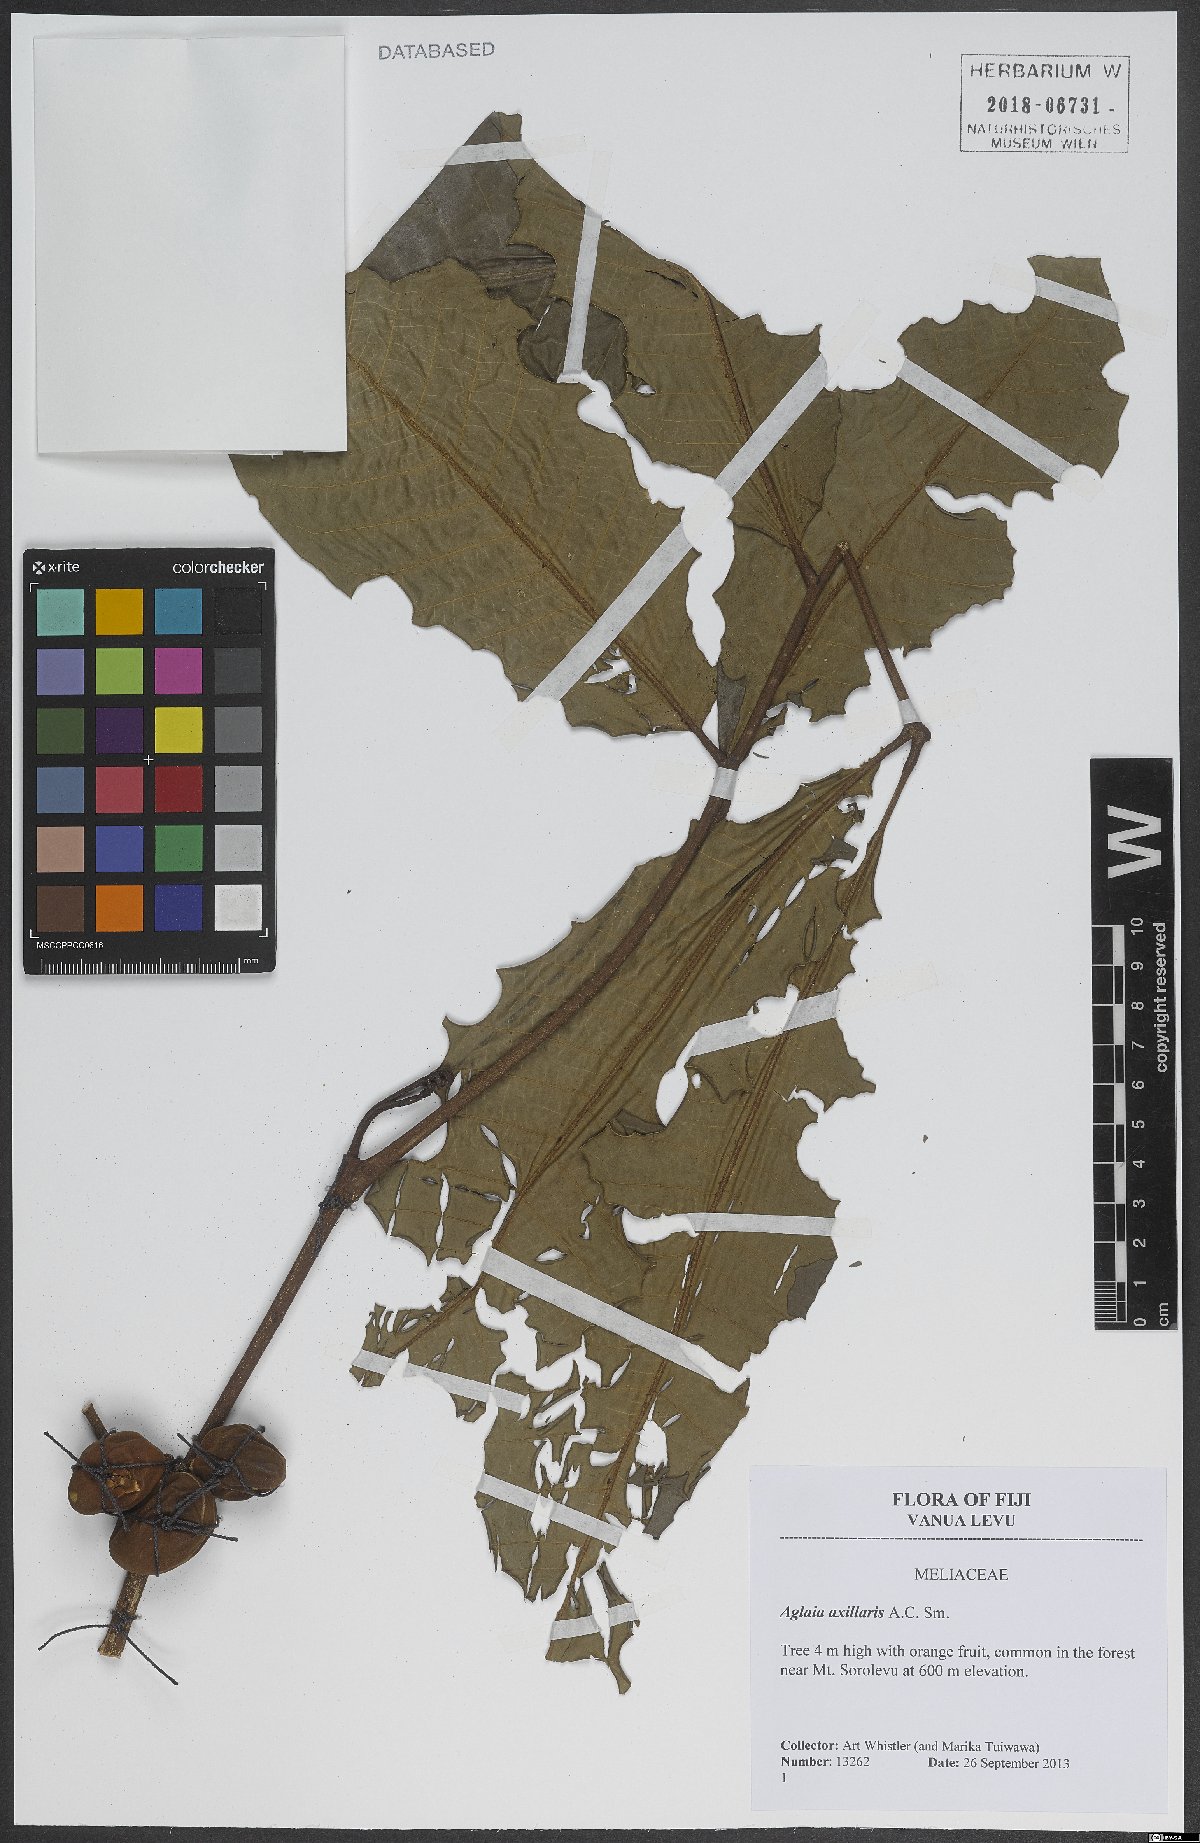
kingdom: Plantae
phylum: Tracheophyta
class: Magnoliopsida
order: Sapindales
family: Meliaceae
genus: Aglaia
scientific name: Aglaia vitiensis
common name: Lindiyango
